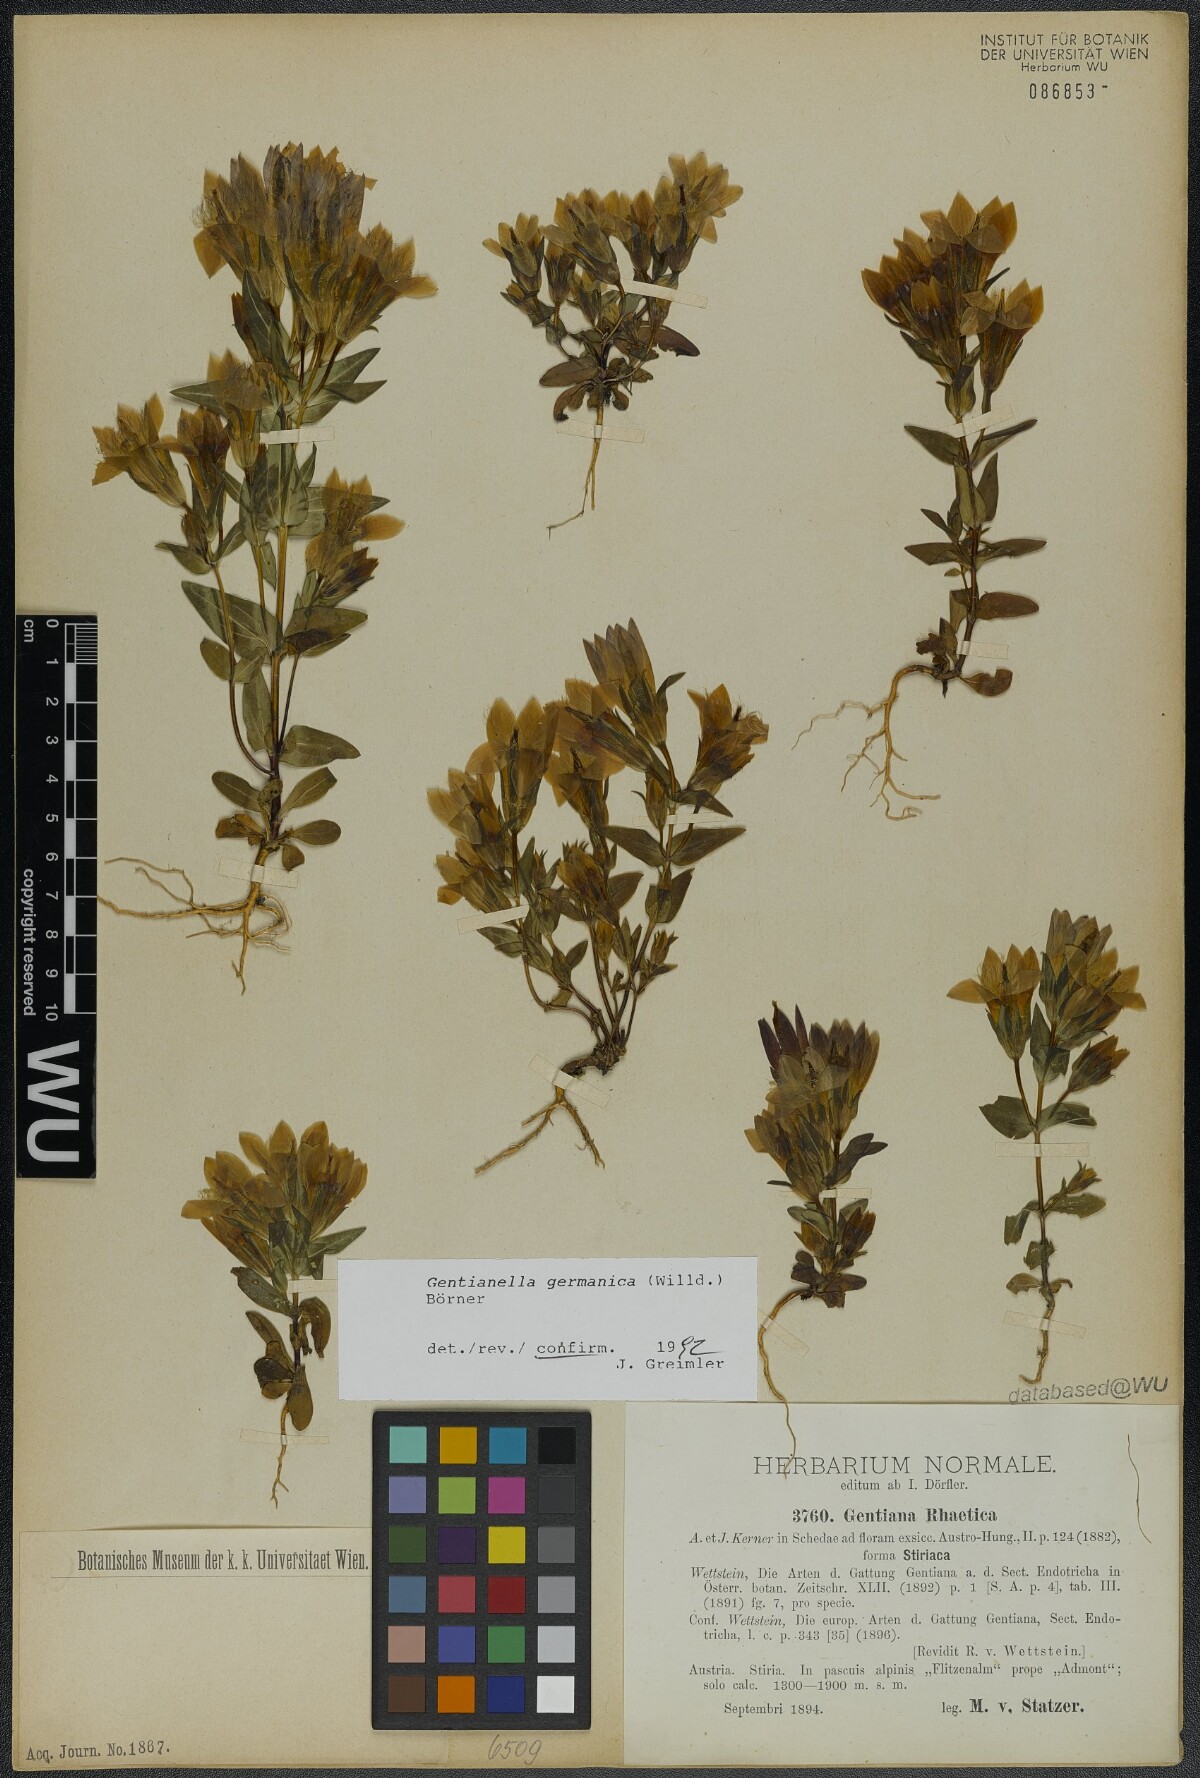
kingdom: Plantae
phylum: Tracheophyta
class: Magnoliopsida
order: Gentianales
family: Gentianaceae
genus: Gentianella
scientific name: Gentianella germanica
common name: Chiltern-gentian
